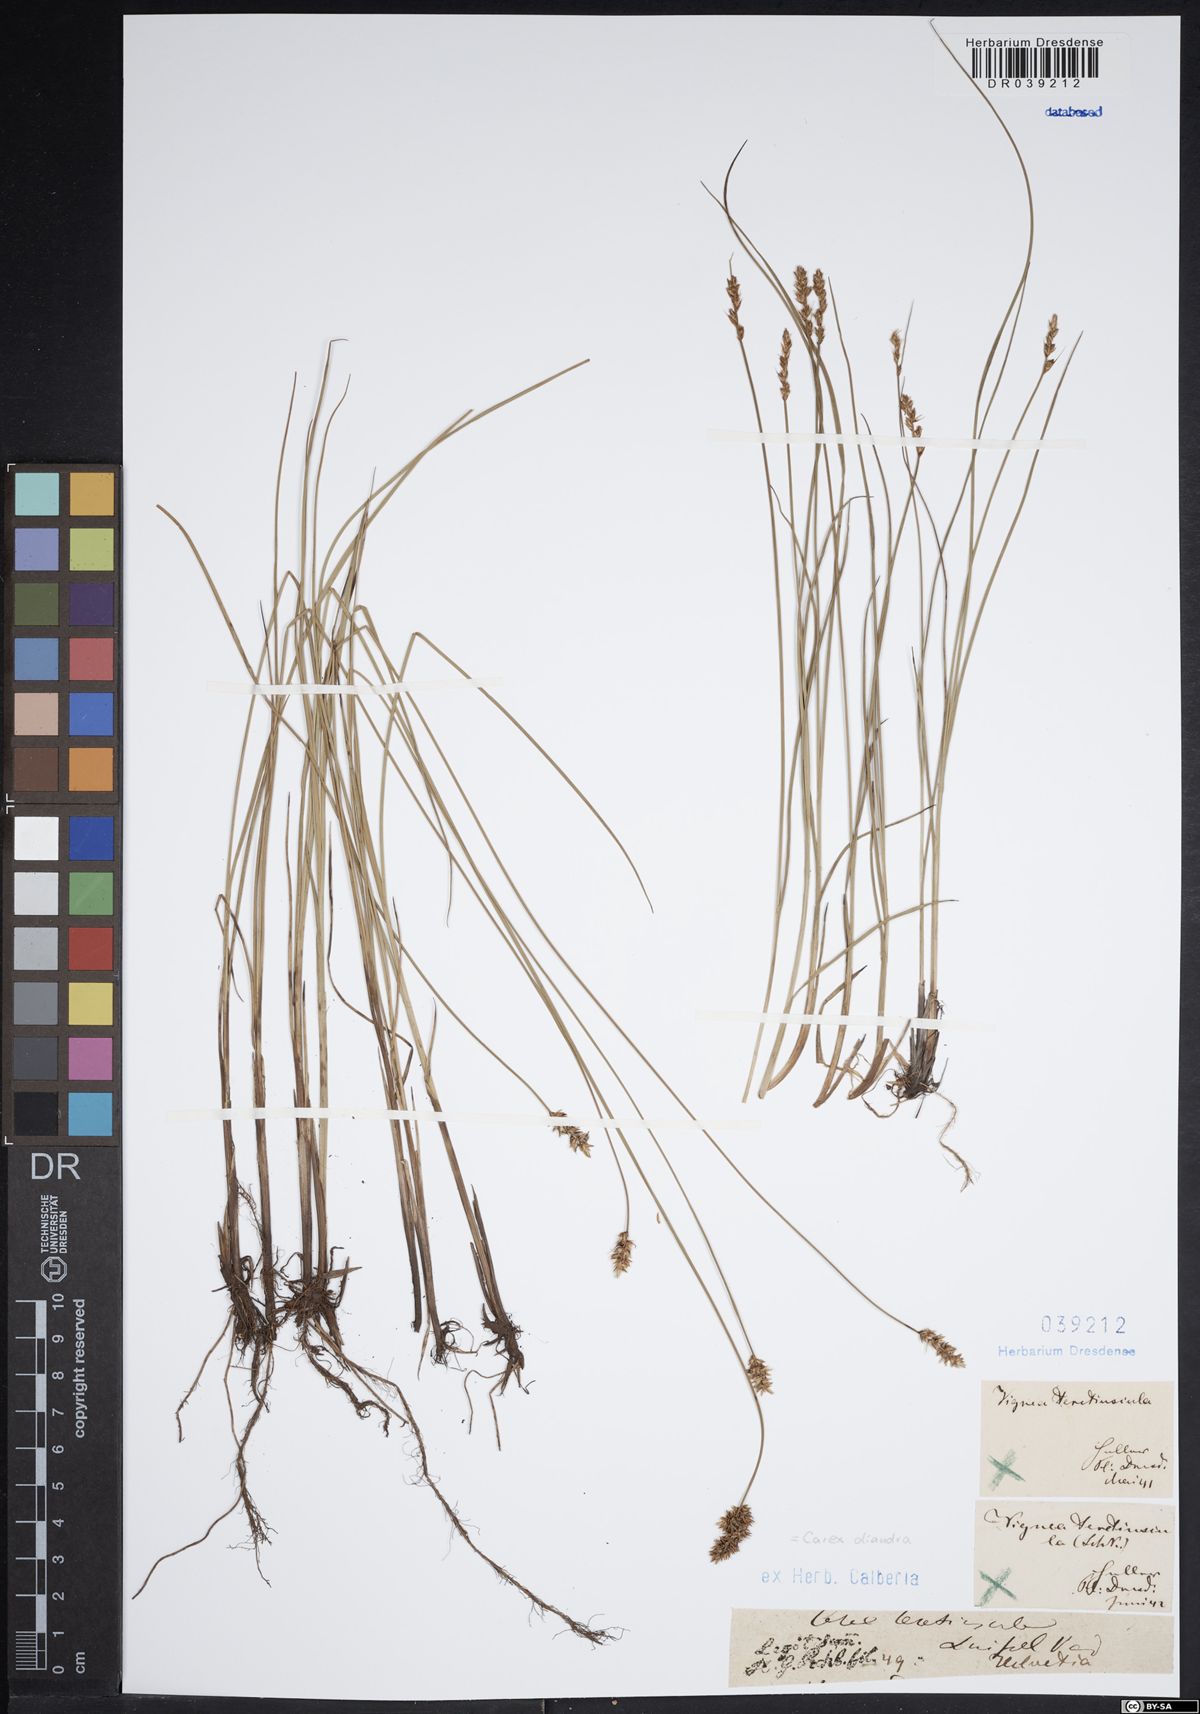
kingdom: Plantae
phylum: Tracheophyta
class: Liliopsida
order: Poales
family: Cyperaceae
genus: Carex
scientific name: Carex diandra
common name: Lesser tussock-sedge
